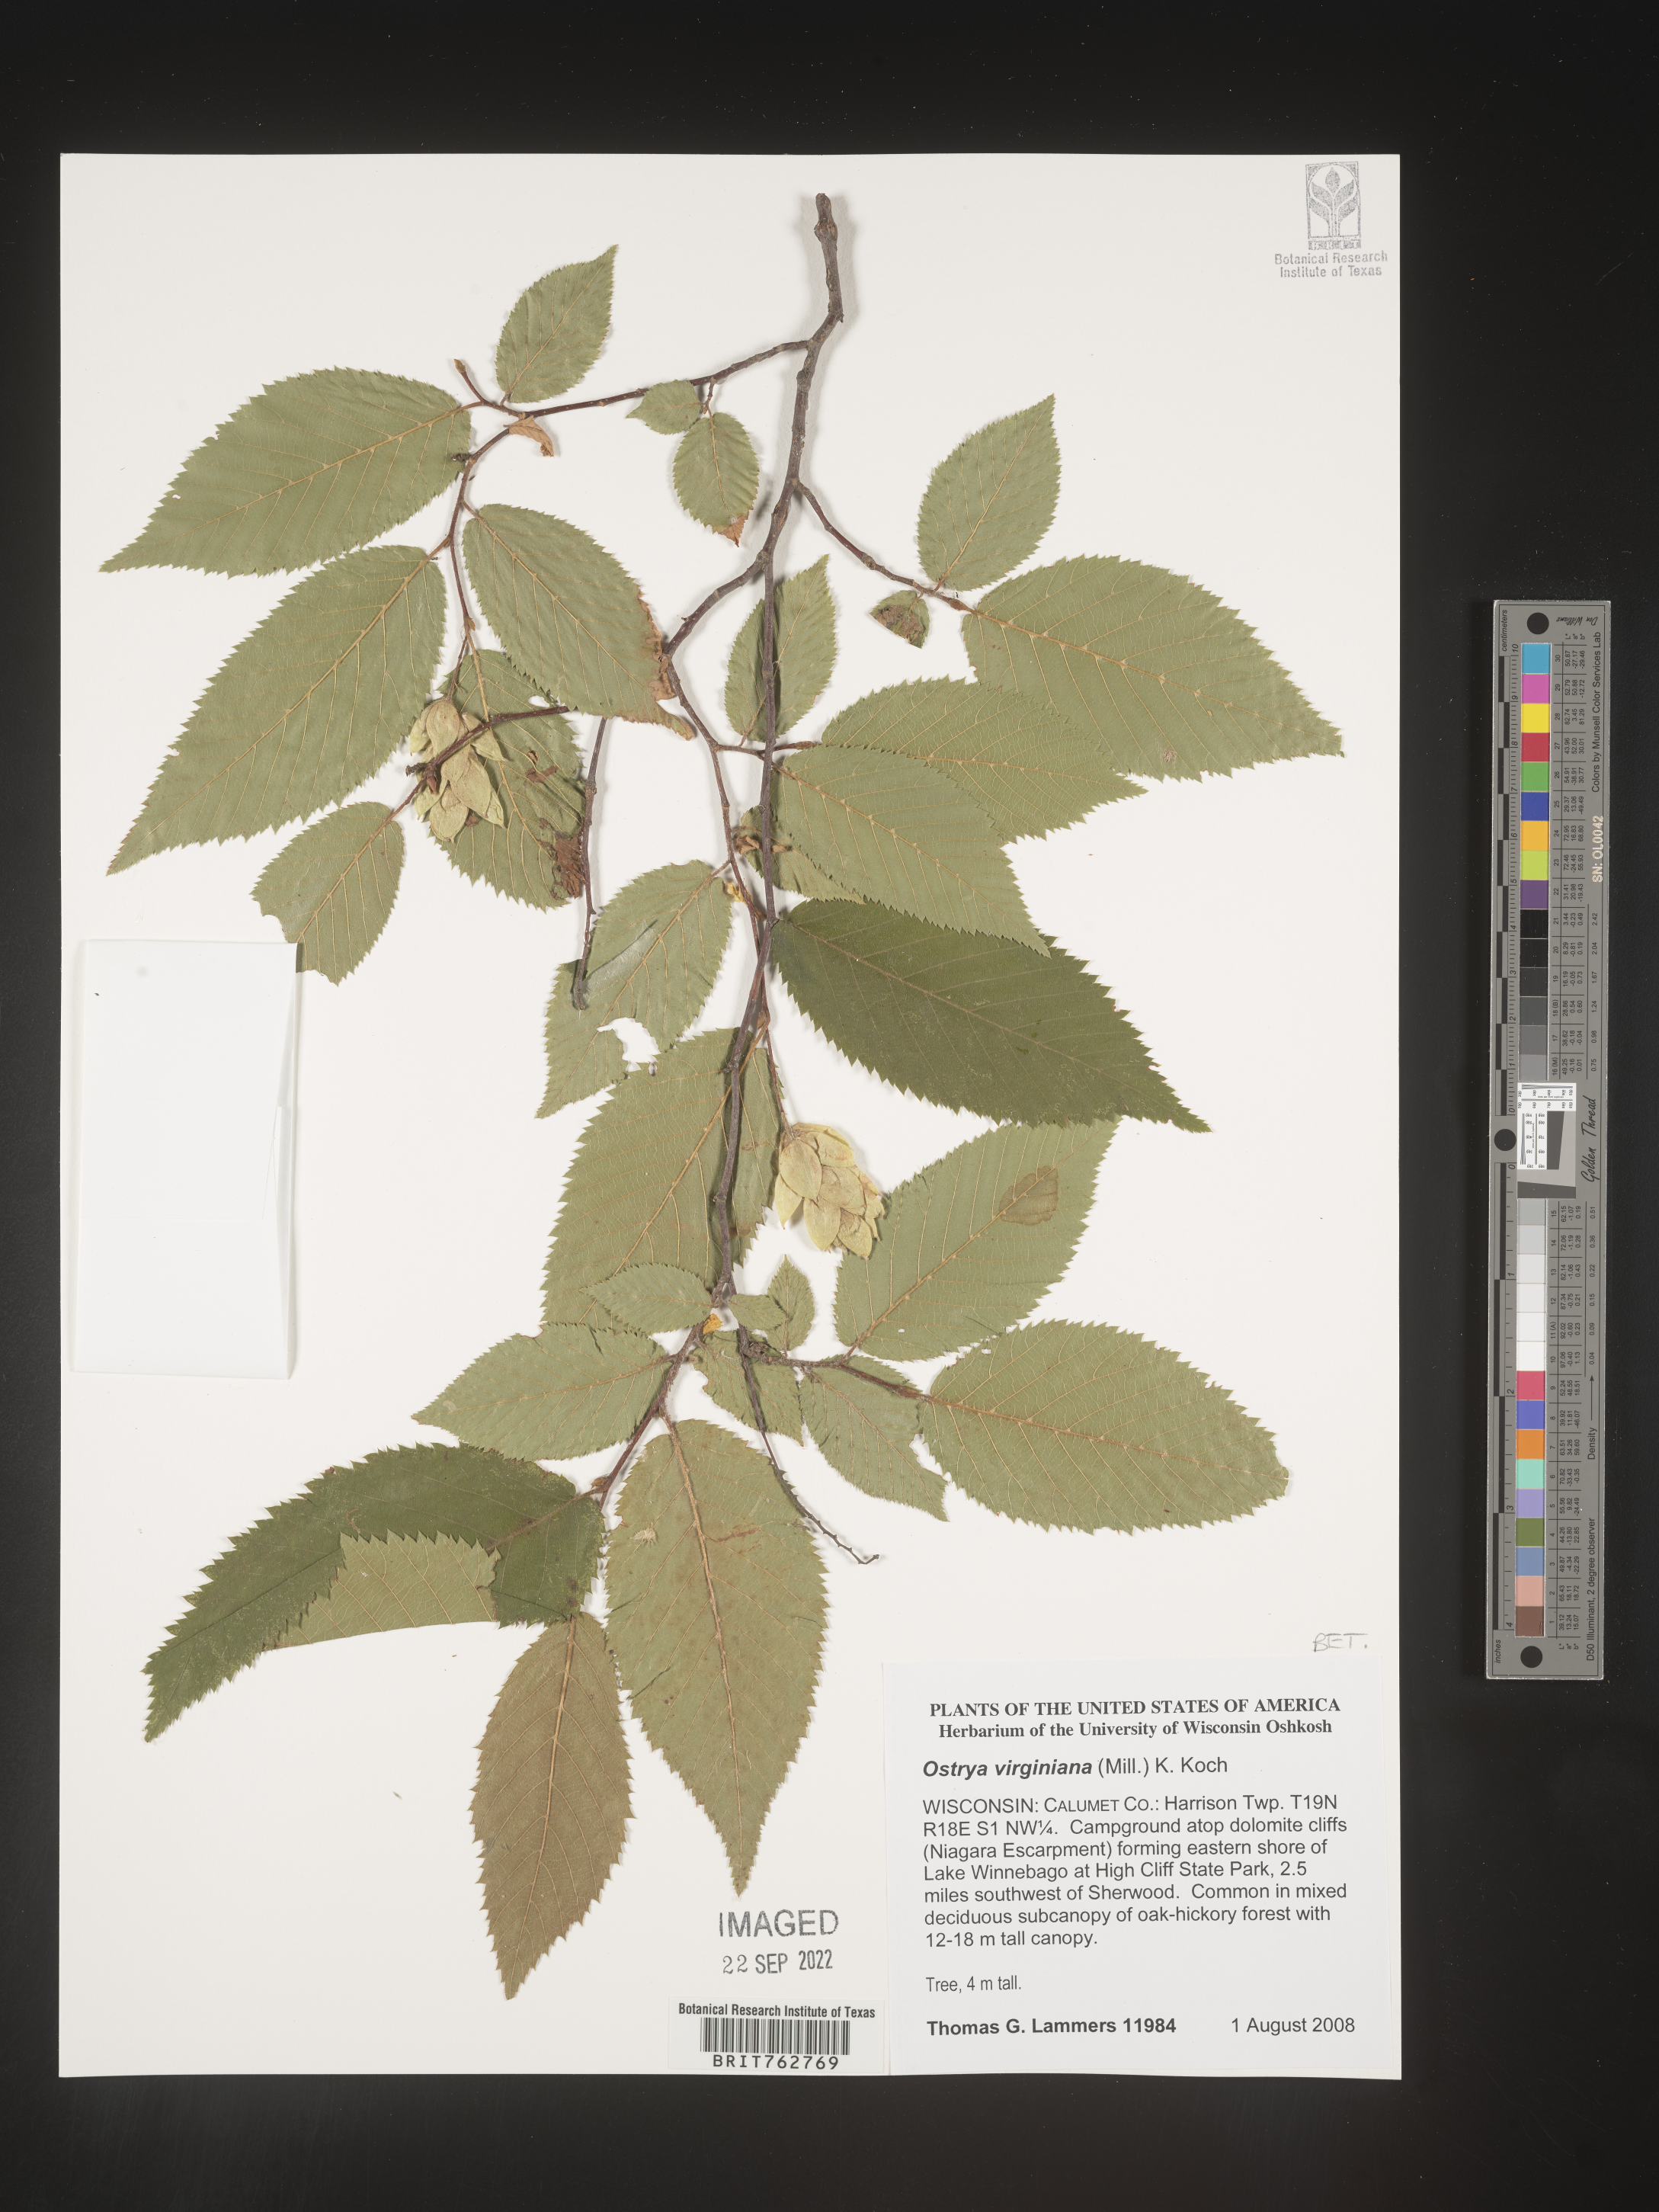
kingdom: Plantae
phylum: Tracheophyta
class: Magnoliopsida
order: Fagales
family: Betulaceae
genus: Ostrya
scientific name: Ostrya virginiana
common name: Ironwood
